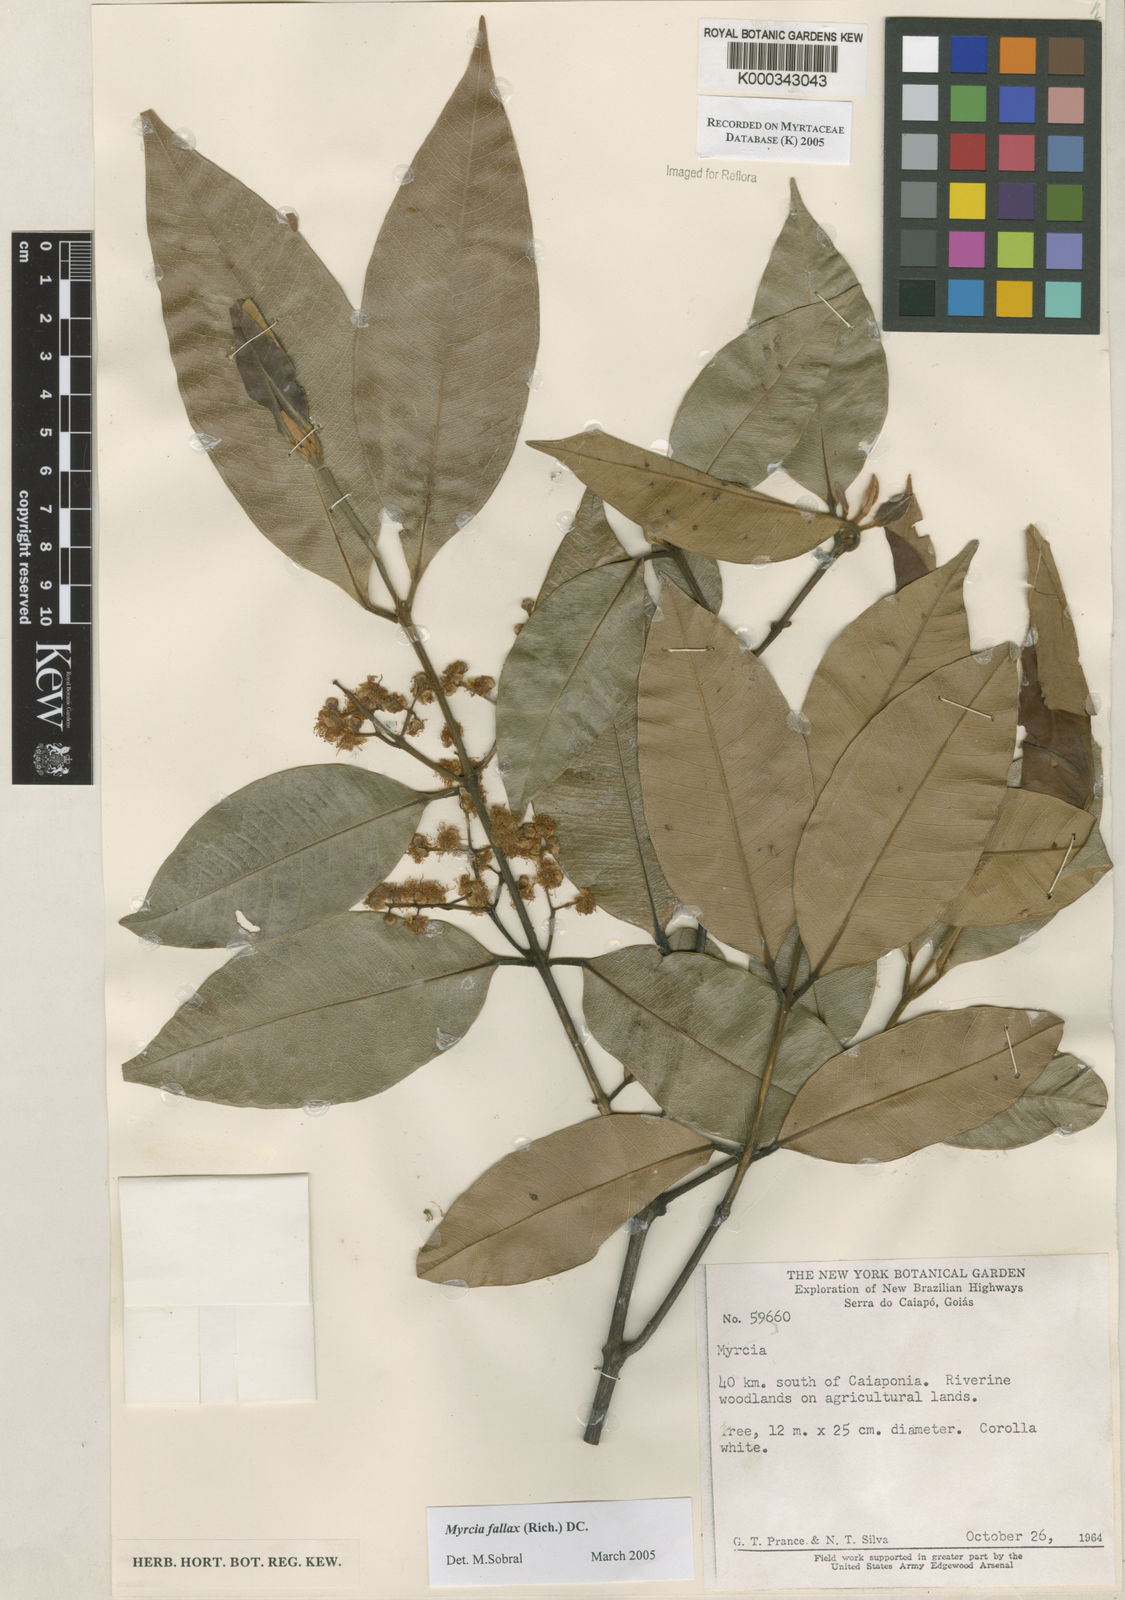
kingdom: Plantae
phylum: Tracheophyta
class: Magnoliopsida
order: Myrtales
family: Myrtaceae
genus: Myrcia
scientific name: Myrcia splendens
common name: Surinam cherry
